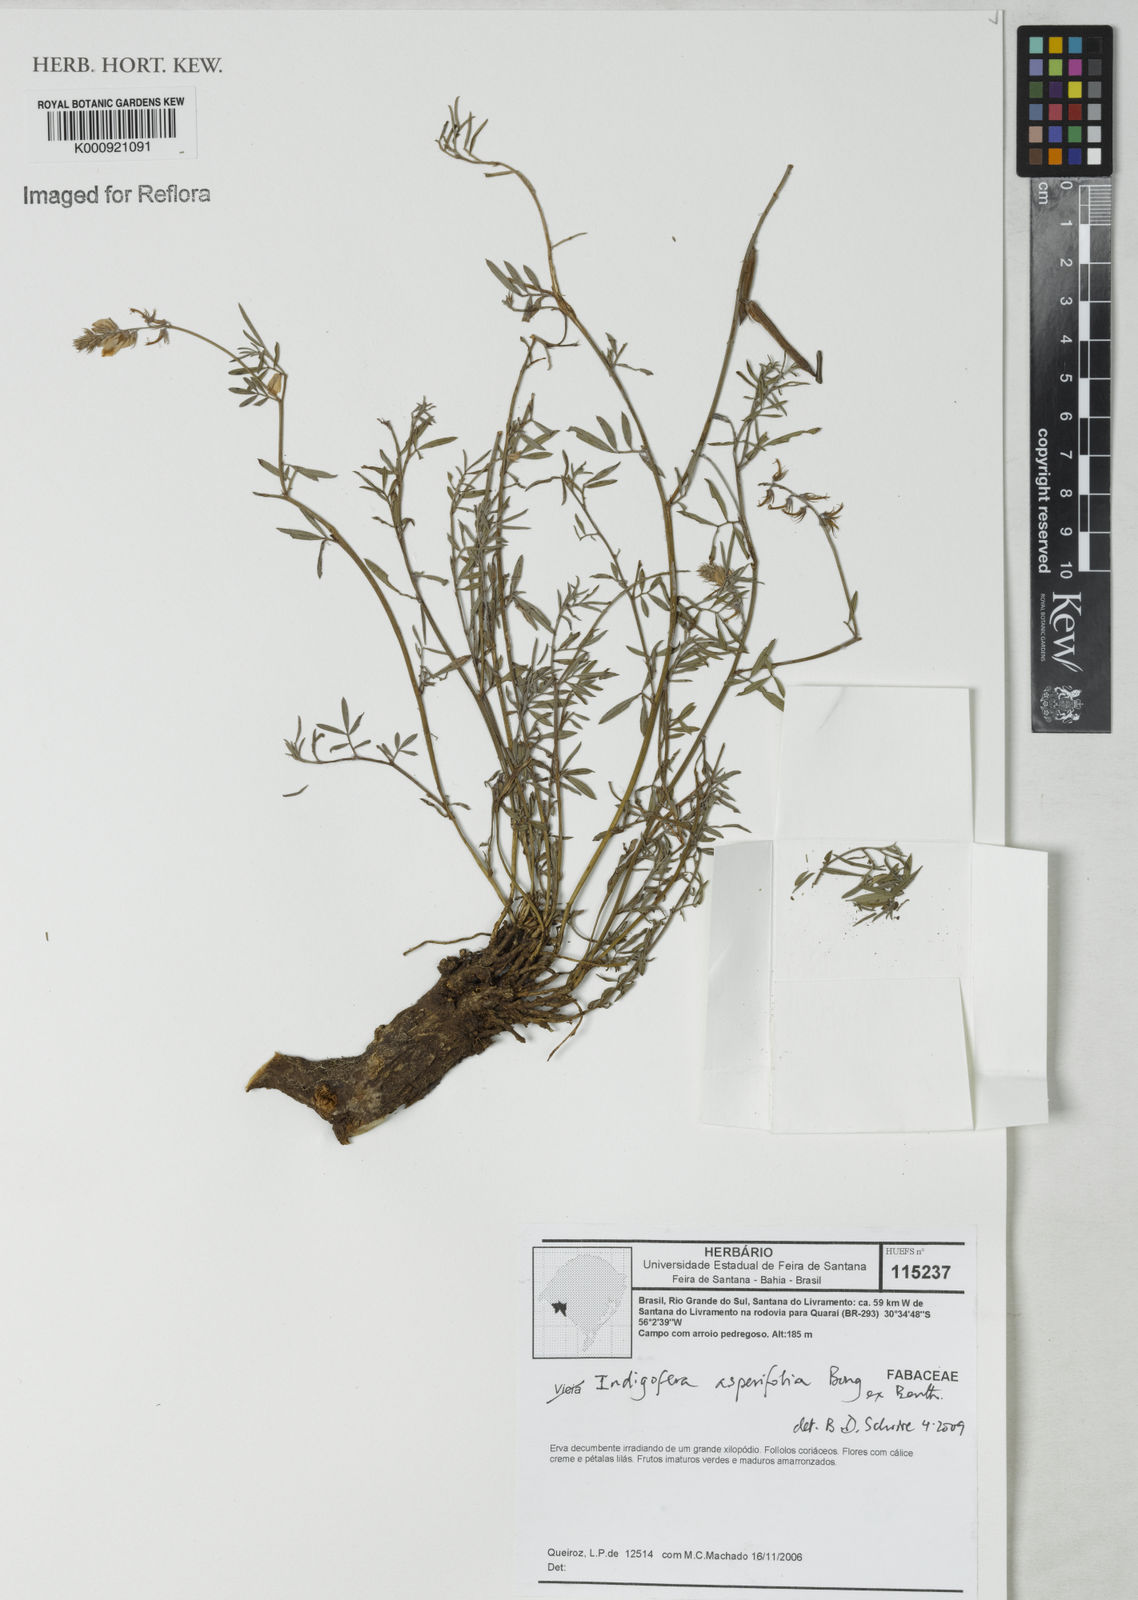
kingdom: Plantae
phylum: Tracheophyta
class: Magnoliopsida
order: Fabales
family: Fabaceae
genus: Indigofera
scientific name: Indigofera
